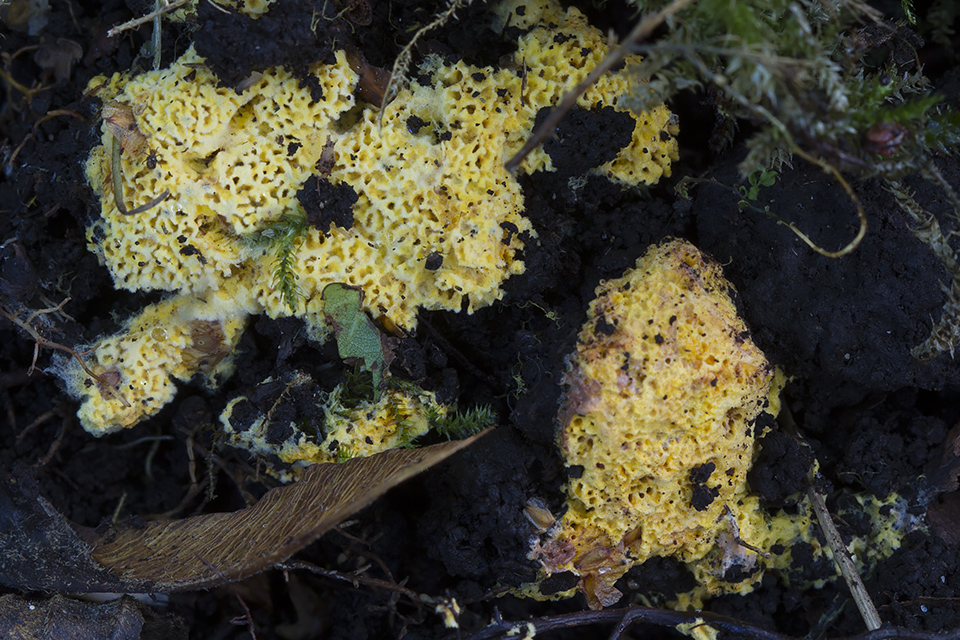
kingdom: Fungi
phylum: Basidiomycota
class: Agaricomycetes
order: Agaricales
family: Stephanosporaceae
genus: Lindtneria
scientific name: Lindtneria trachyspora
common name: labyrint-citrushinde
